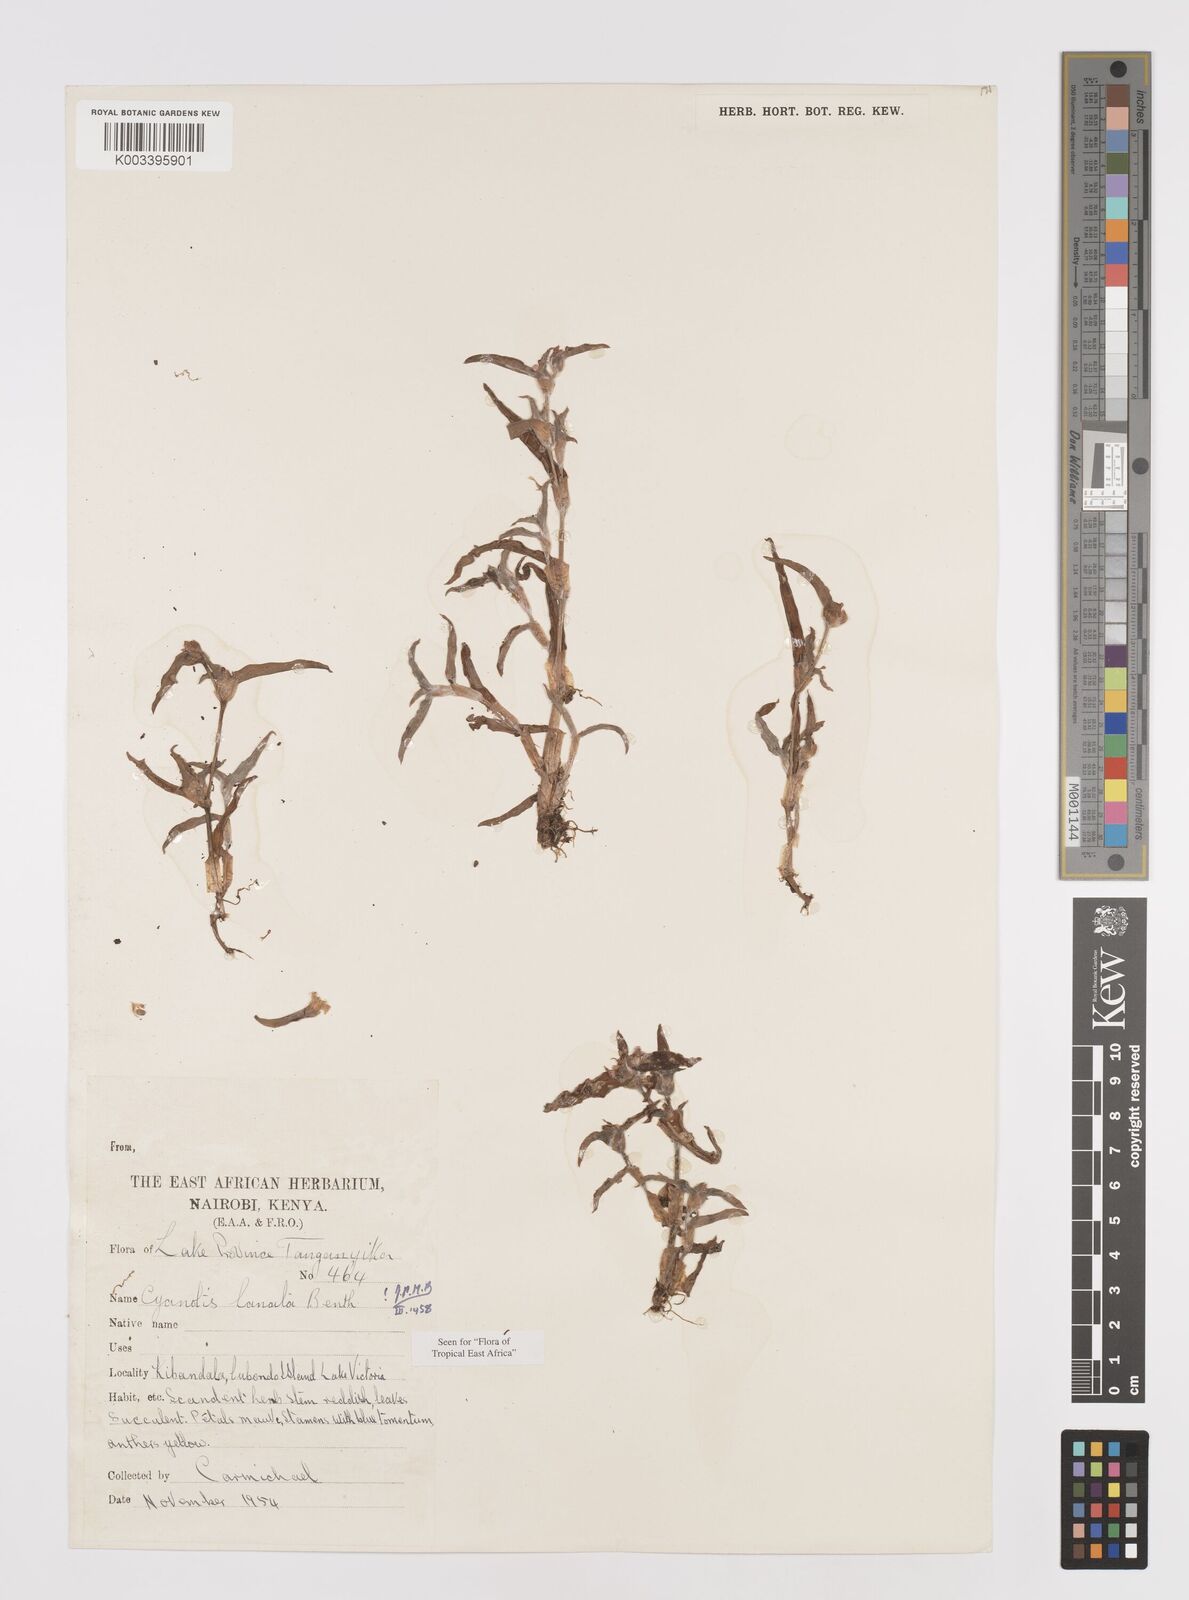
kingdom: Plantae
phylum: Tracheophyta
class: Liliopsida
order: Commelinales
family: Commelinaceae
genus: Cyanotis
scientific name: Cyanotis lanata
